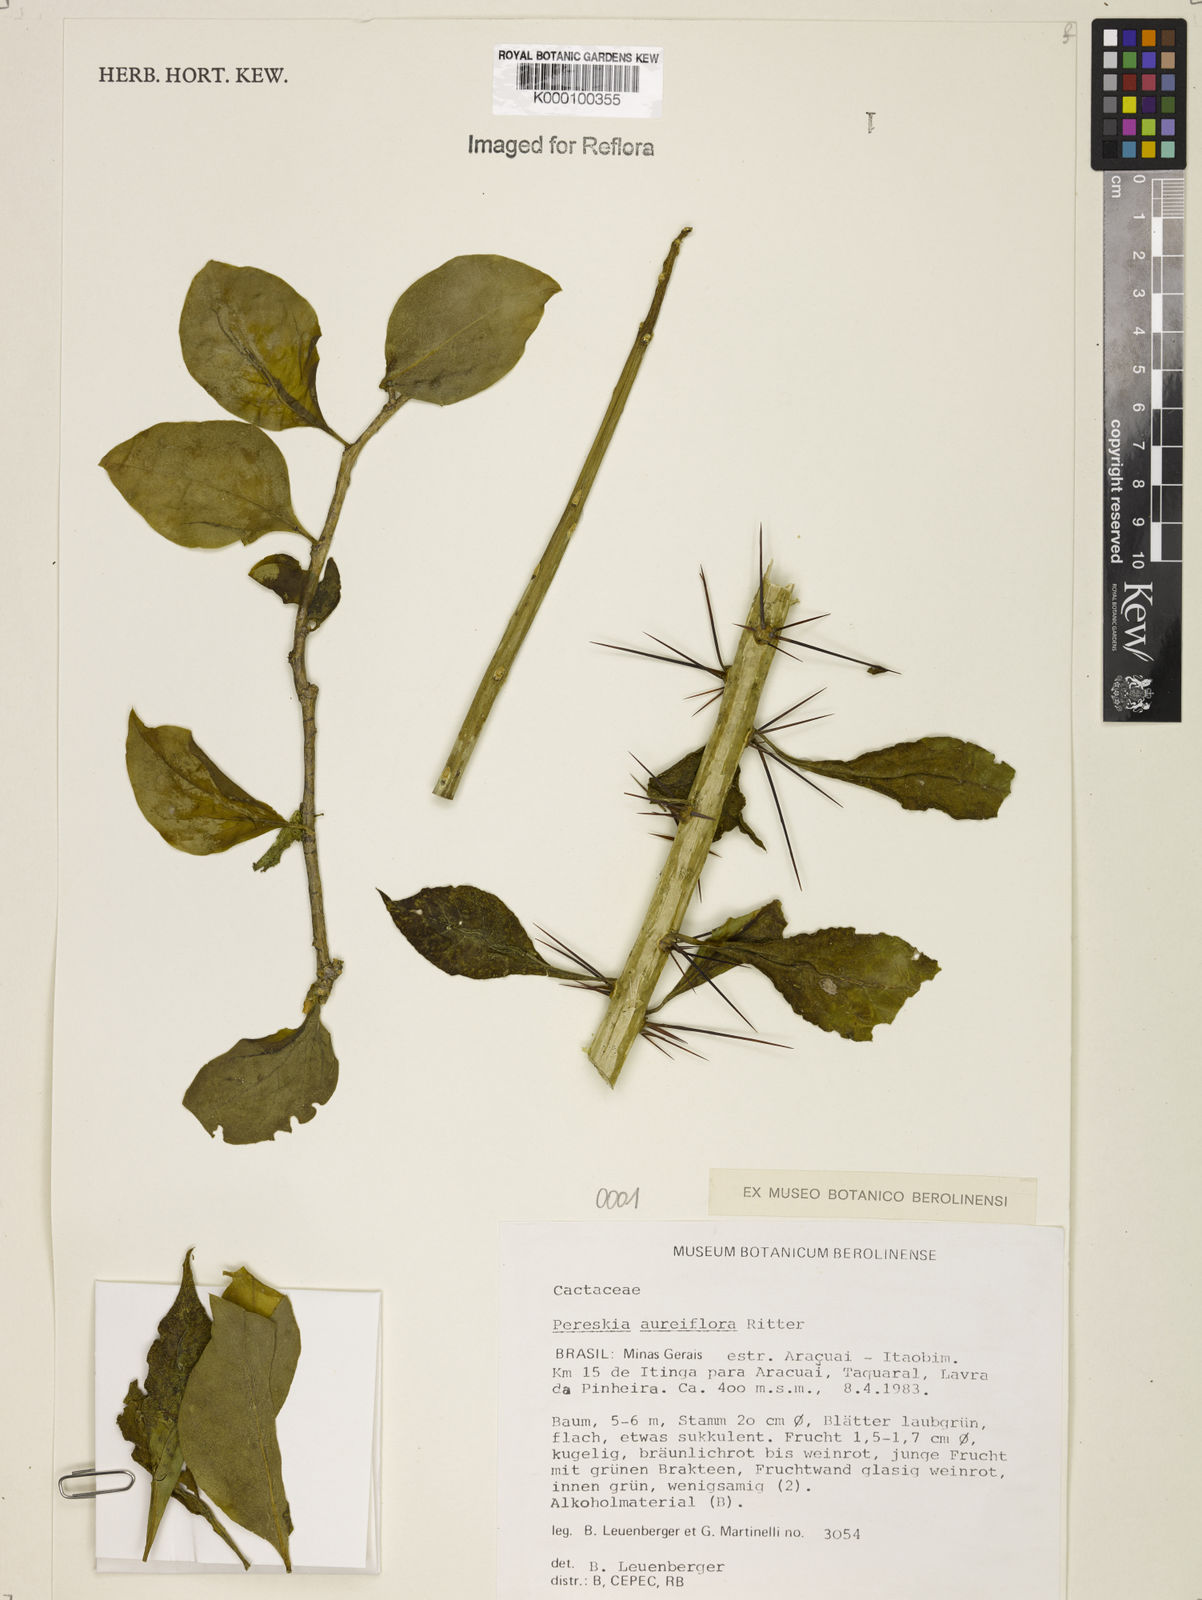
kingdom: Plantae
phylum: Tracheophyta
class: Magnoliopsida
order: Caryophyllales
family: Cactaceae
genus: Leuenbergeria
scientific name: Leuenbergeria aureiflora
